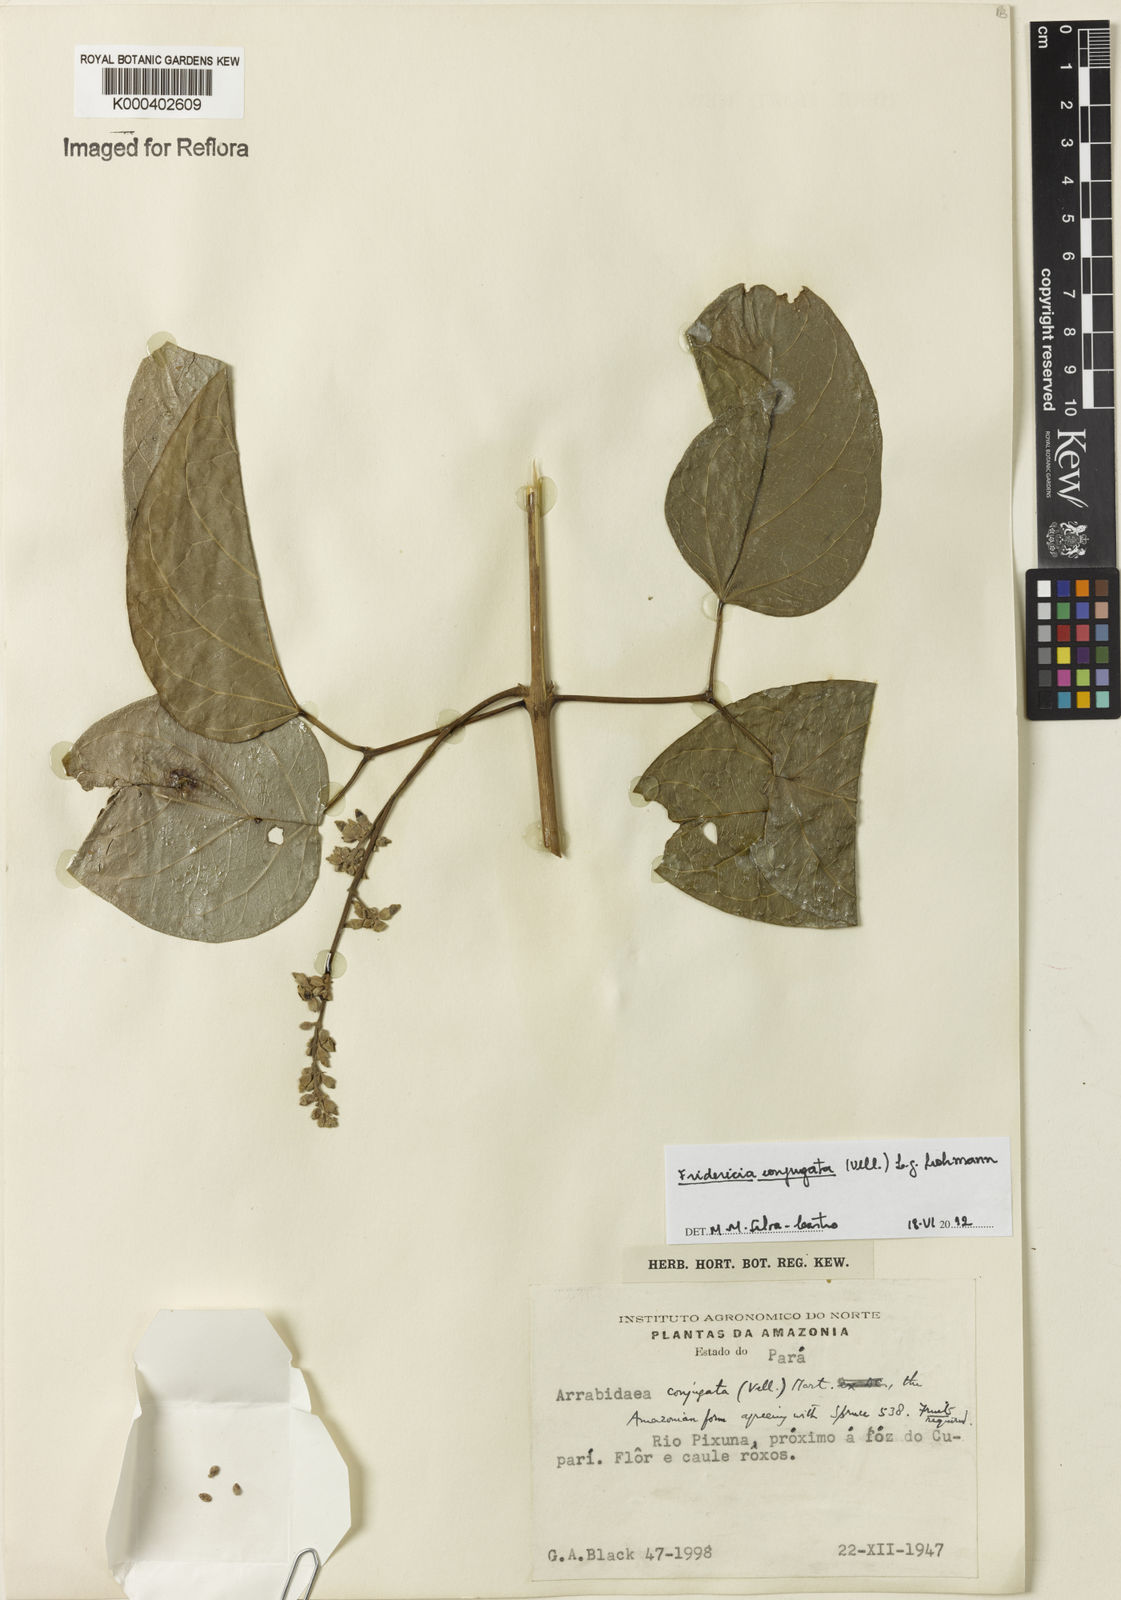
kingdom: Plantae
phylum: Tracheophyta
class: Magnoliopsida
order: Lamiales
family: Bignoniaceae
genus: Fridericia
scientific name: Fridericia conjugata
